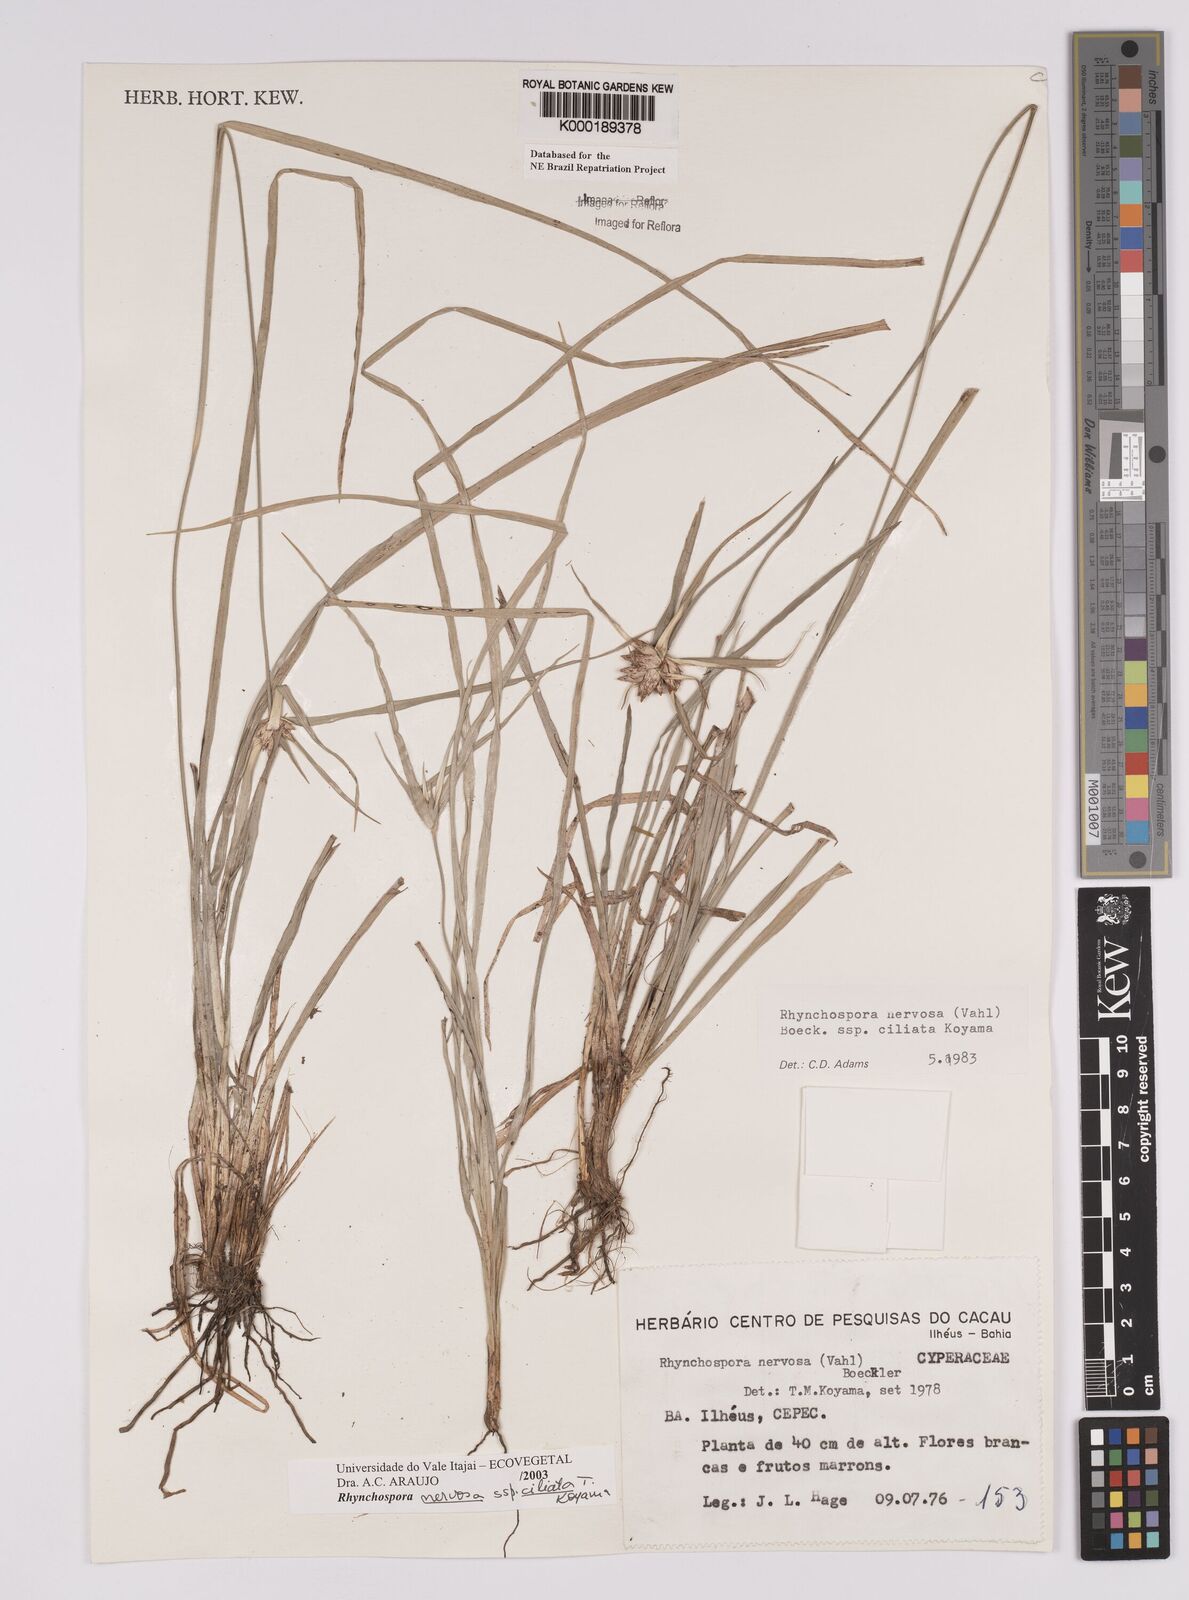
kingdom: Plantae
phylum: Tracheophyta
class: Liliopsida
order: Poales
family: Cyperaceae
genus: Rhynchospora
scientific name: Rhynchospora pura
